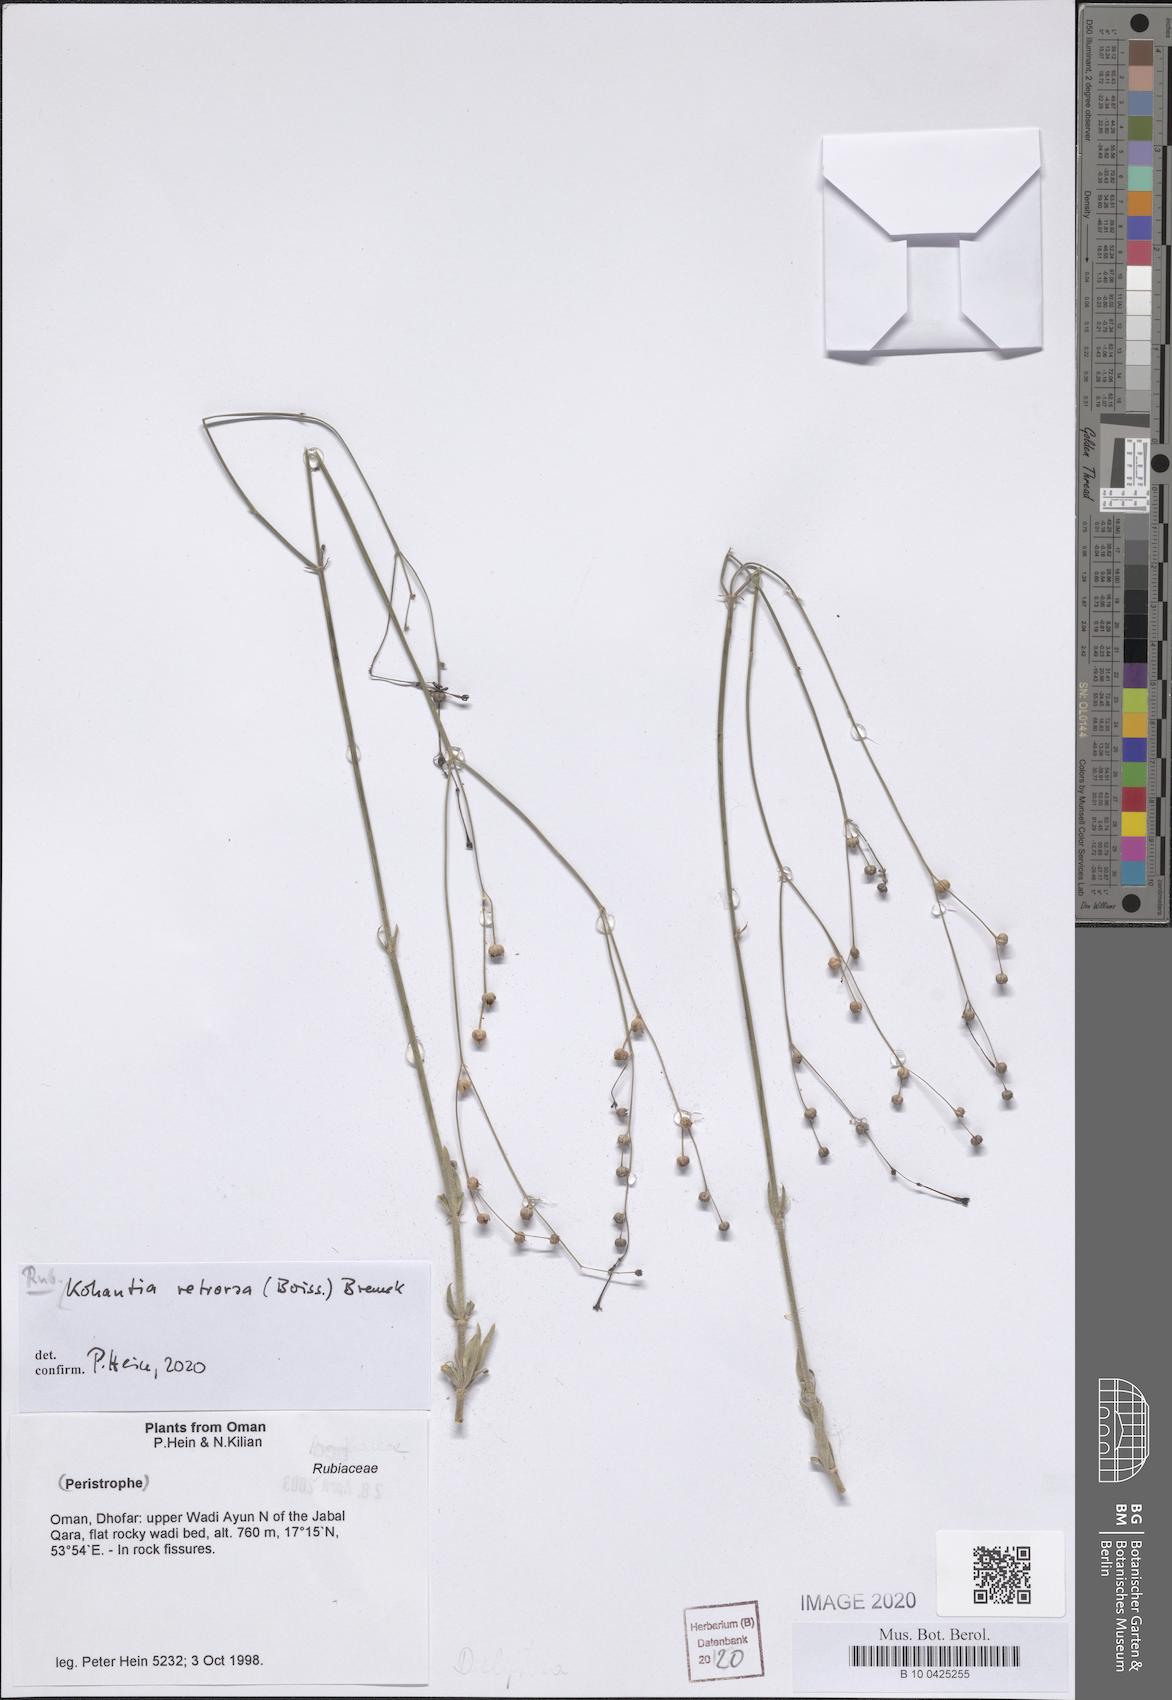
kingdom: Plantae
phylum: Tracheophyta
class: Magnoliopsida
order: Gentianales
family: Rubiaceae
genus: Kohautia
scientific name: Kohautia retrorsa
